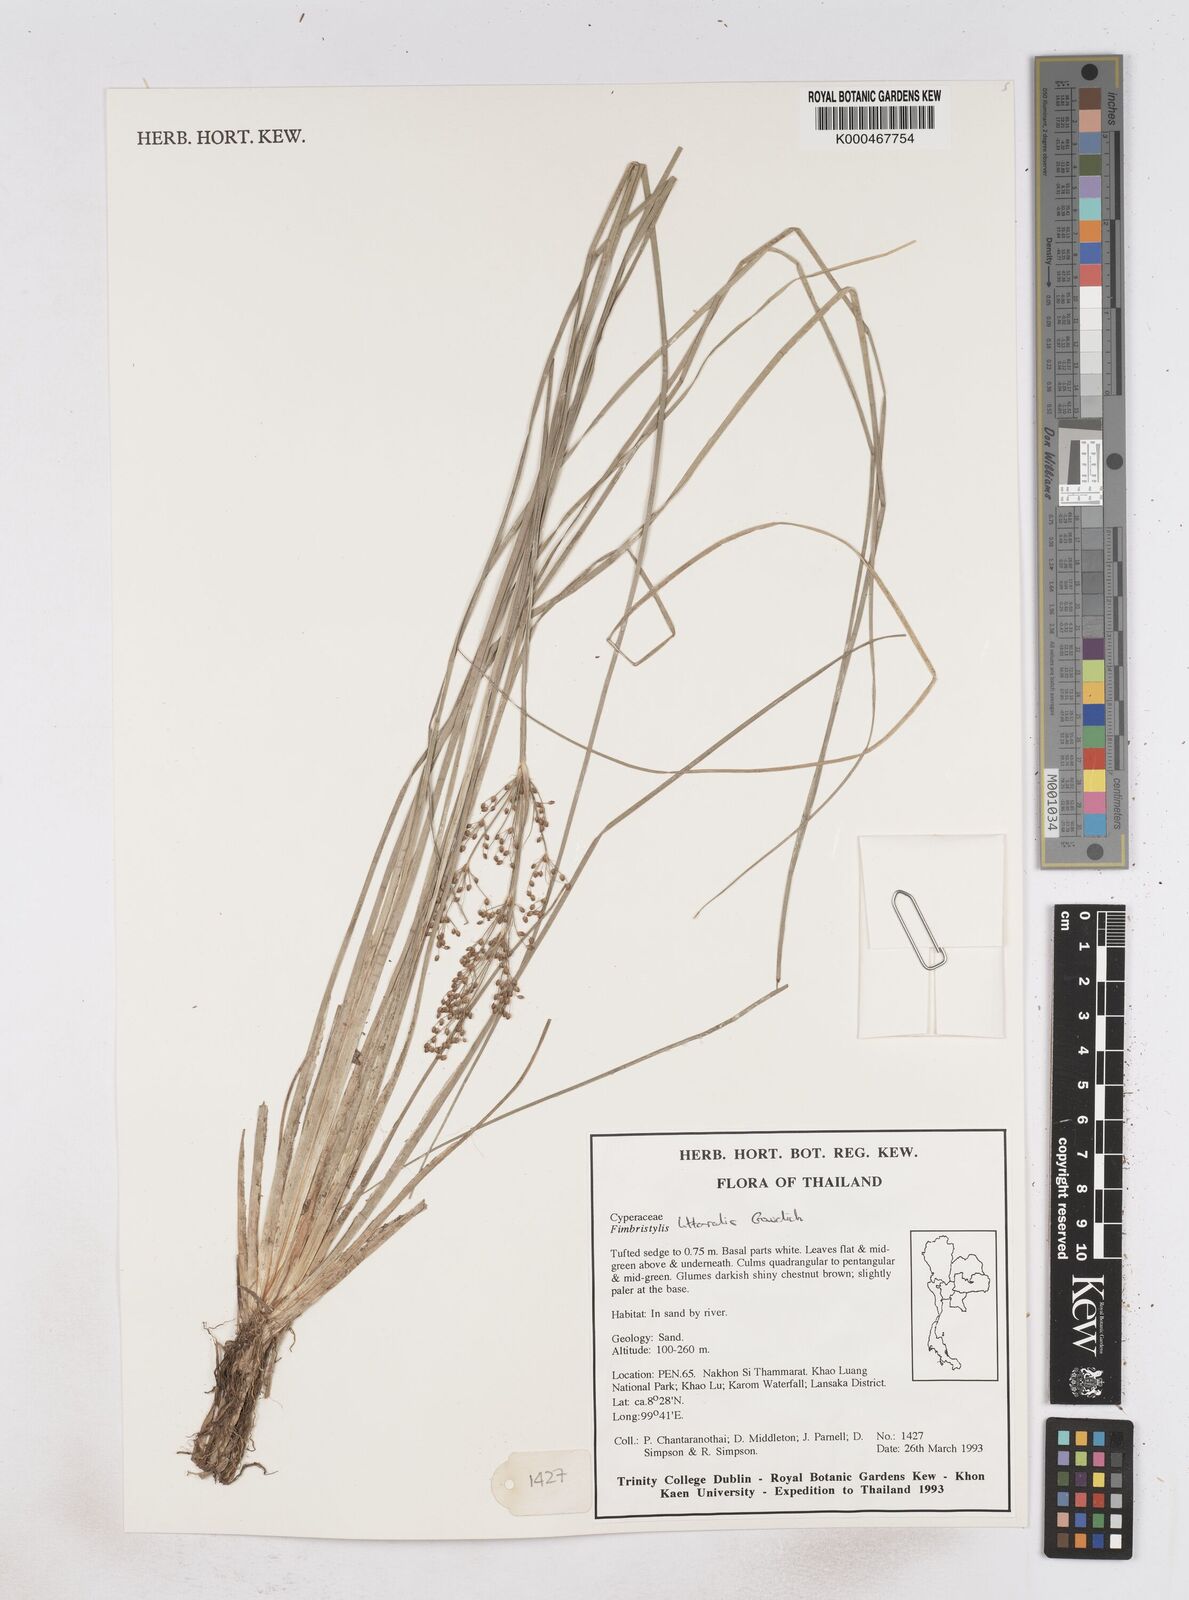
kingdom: Plantae
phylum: Tracheophyta
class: Liliopsida
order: Poales
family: Cyperaceae
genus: Fimbristylis
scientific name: Fimbristylis quinquangularis
